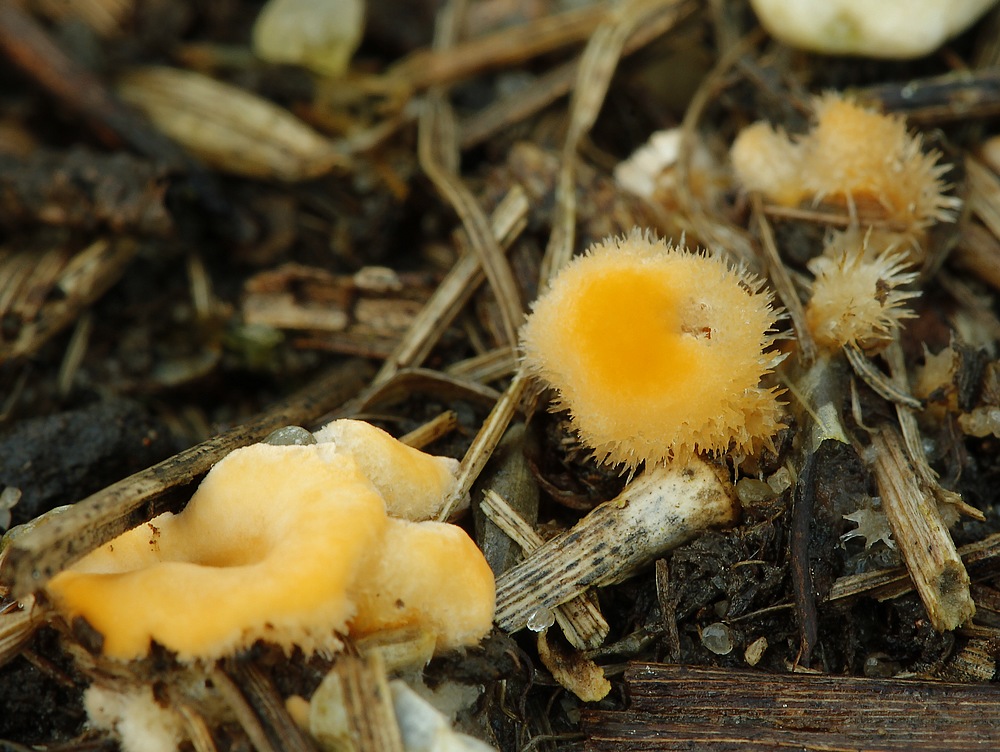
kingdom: Fungi
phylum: Basidiomycota
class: Agaricomycetes
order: Russulales
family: Stereaceae
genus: Stereum
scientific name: Stereum hirsutum
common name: håret lædersvamp
